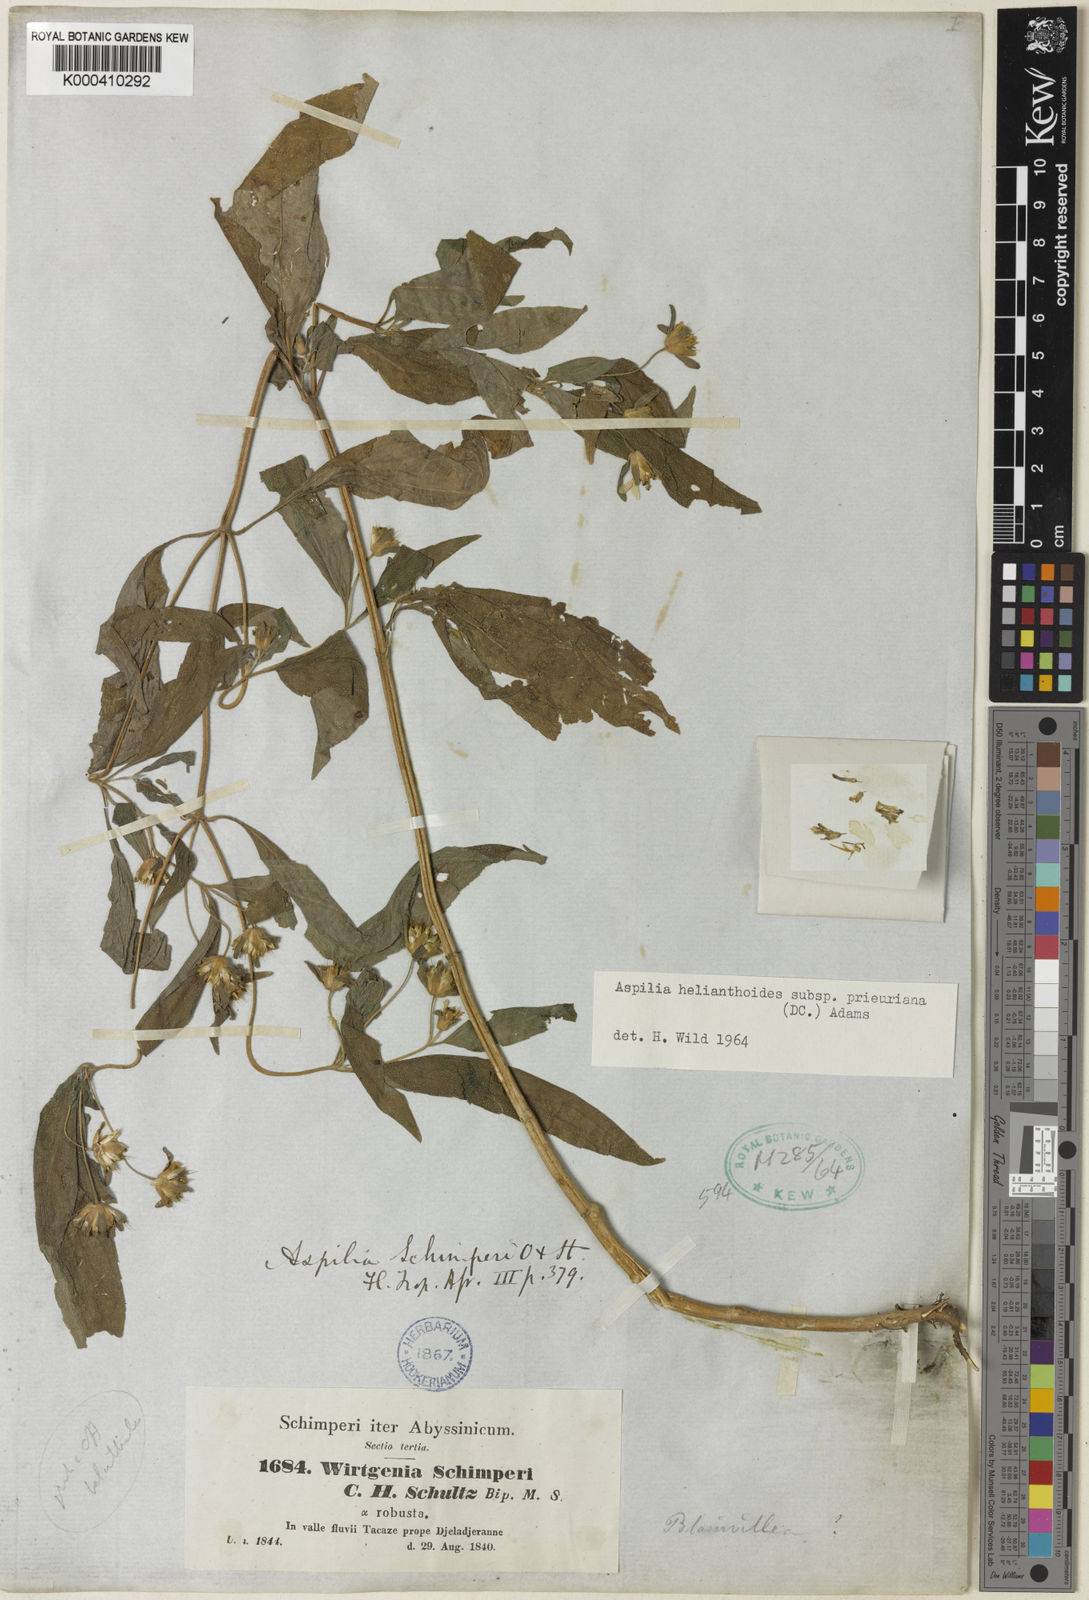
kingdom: Plantae
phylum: Tracheophyta
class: Magnoliopsida
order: Asterales
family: Asteraceae
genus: Aspilia
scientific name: Aspilia ciliata
